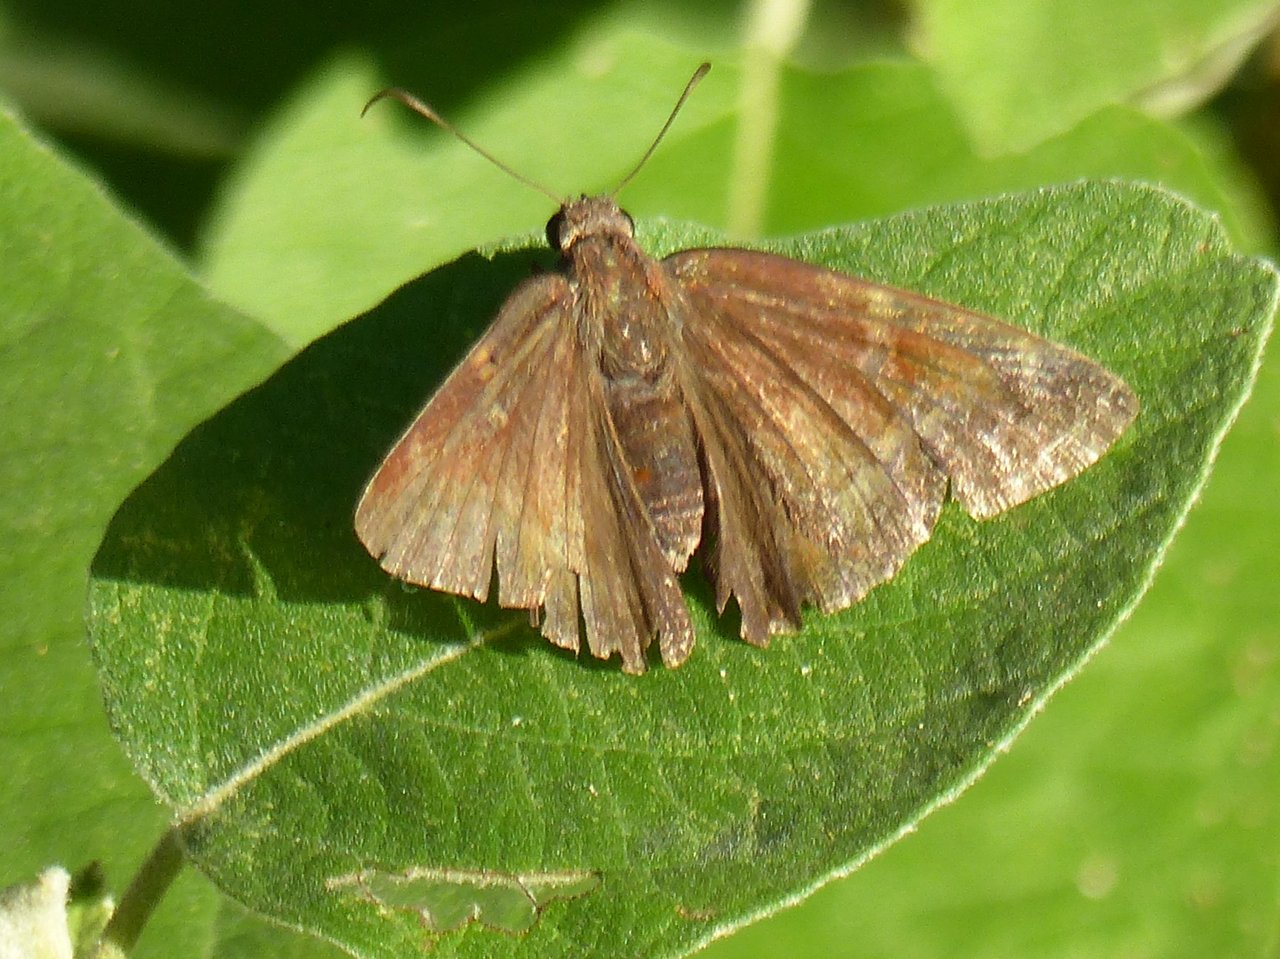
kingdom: Animalia
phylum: Arthropoda
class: Insecta
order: Lepidoptera
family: Hesperiidae
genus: Achalarus
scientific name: Achalarus toxeus
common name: Coyote Cloudywing
